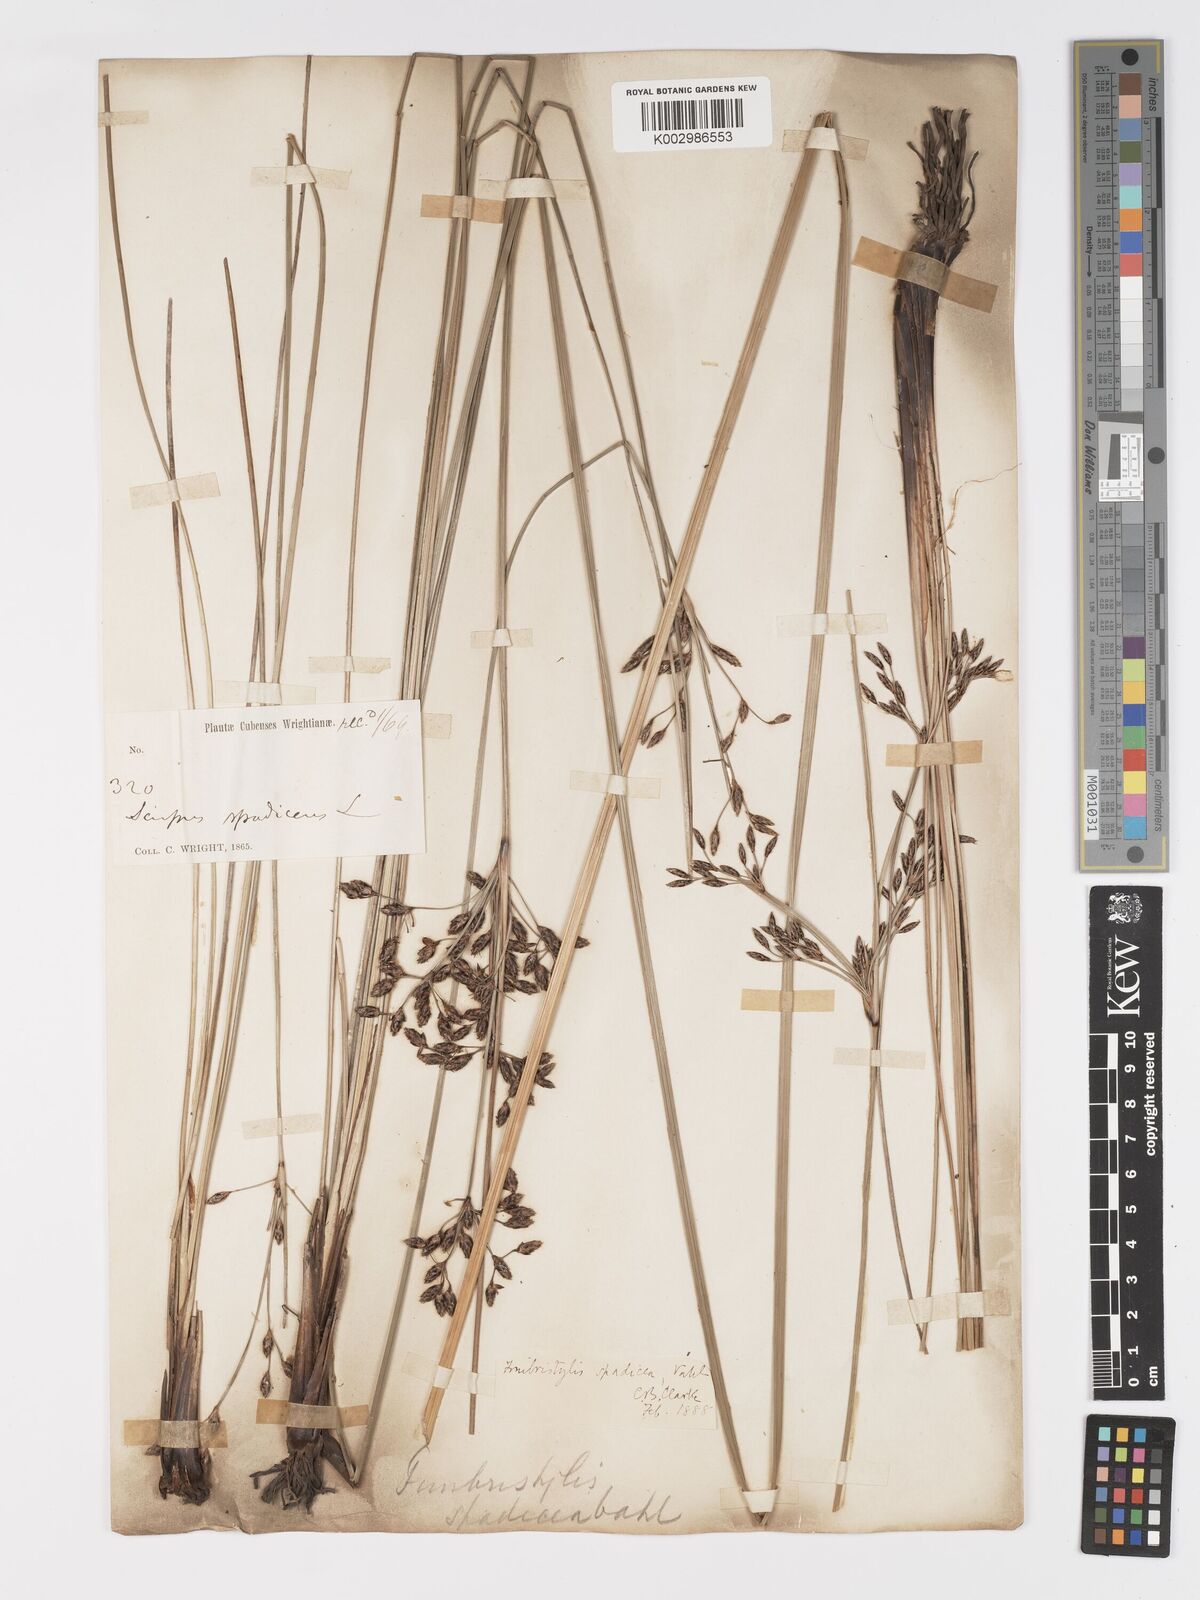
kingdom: Plantae
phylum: Tracheophyta
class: Liliopsida
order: Poales
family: Cyperaceae
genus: Fimbristylis
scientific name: Fimbristylis spadicea
